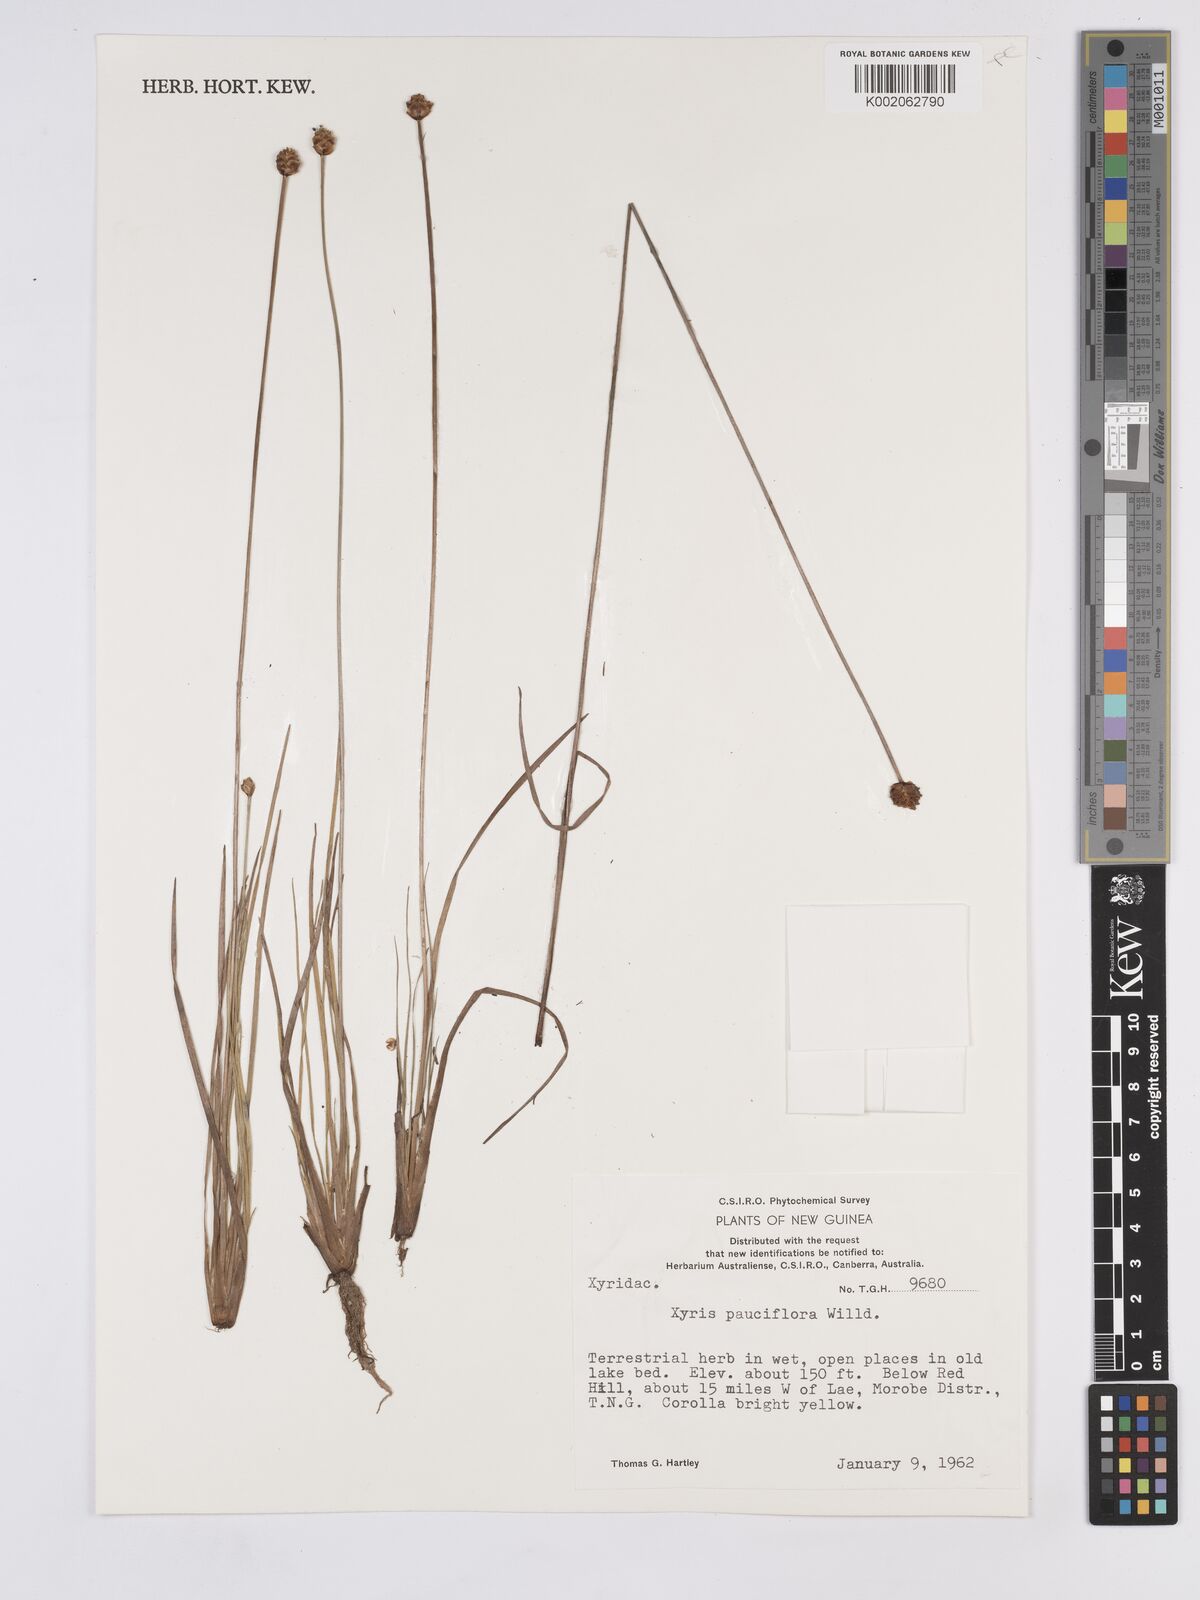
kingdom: Plantae
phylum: Tracheophyta
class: Liliopsida
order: Poales
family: Xyridaceae
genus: Xyris
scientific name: Xyris pauciflora
